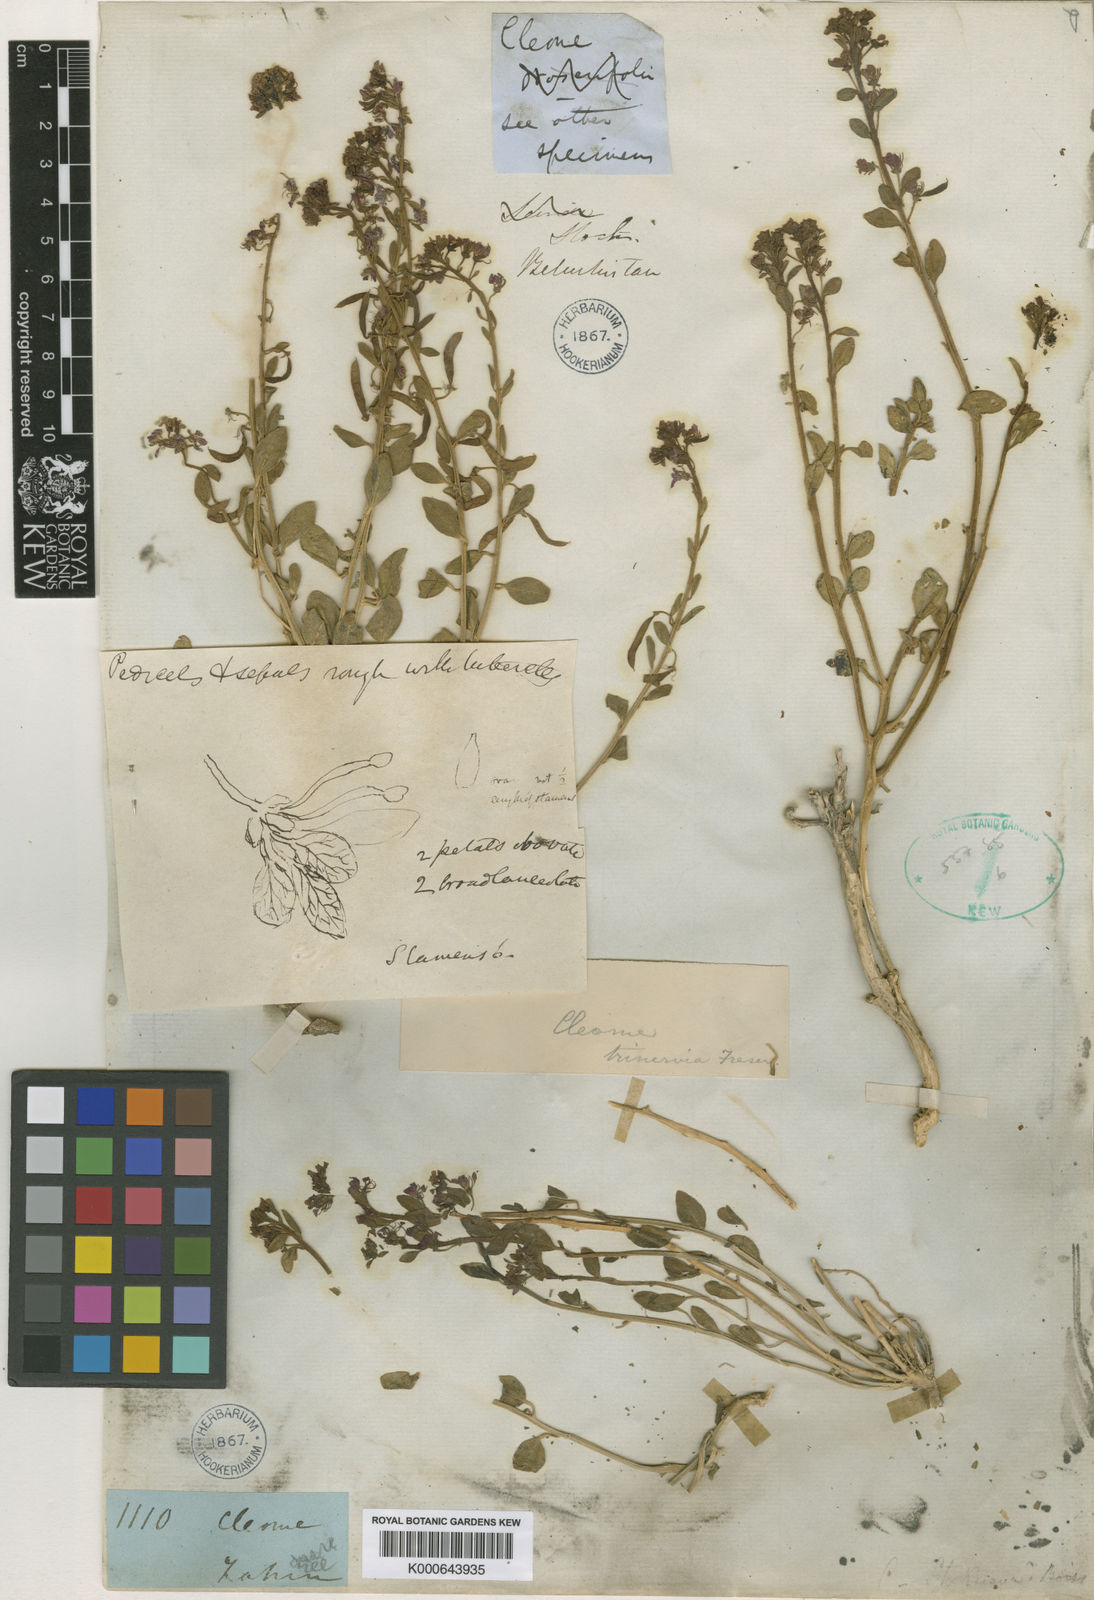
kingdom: Plantae
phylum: Tracheophyta
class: Magnoliopsida
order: Brassicales
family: Cleomaceae
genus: Cleome
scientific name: Cleome rupicola
